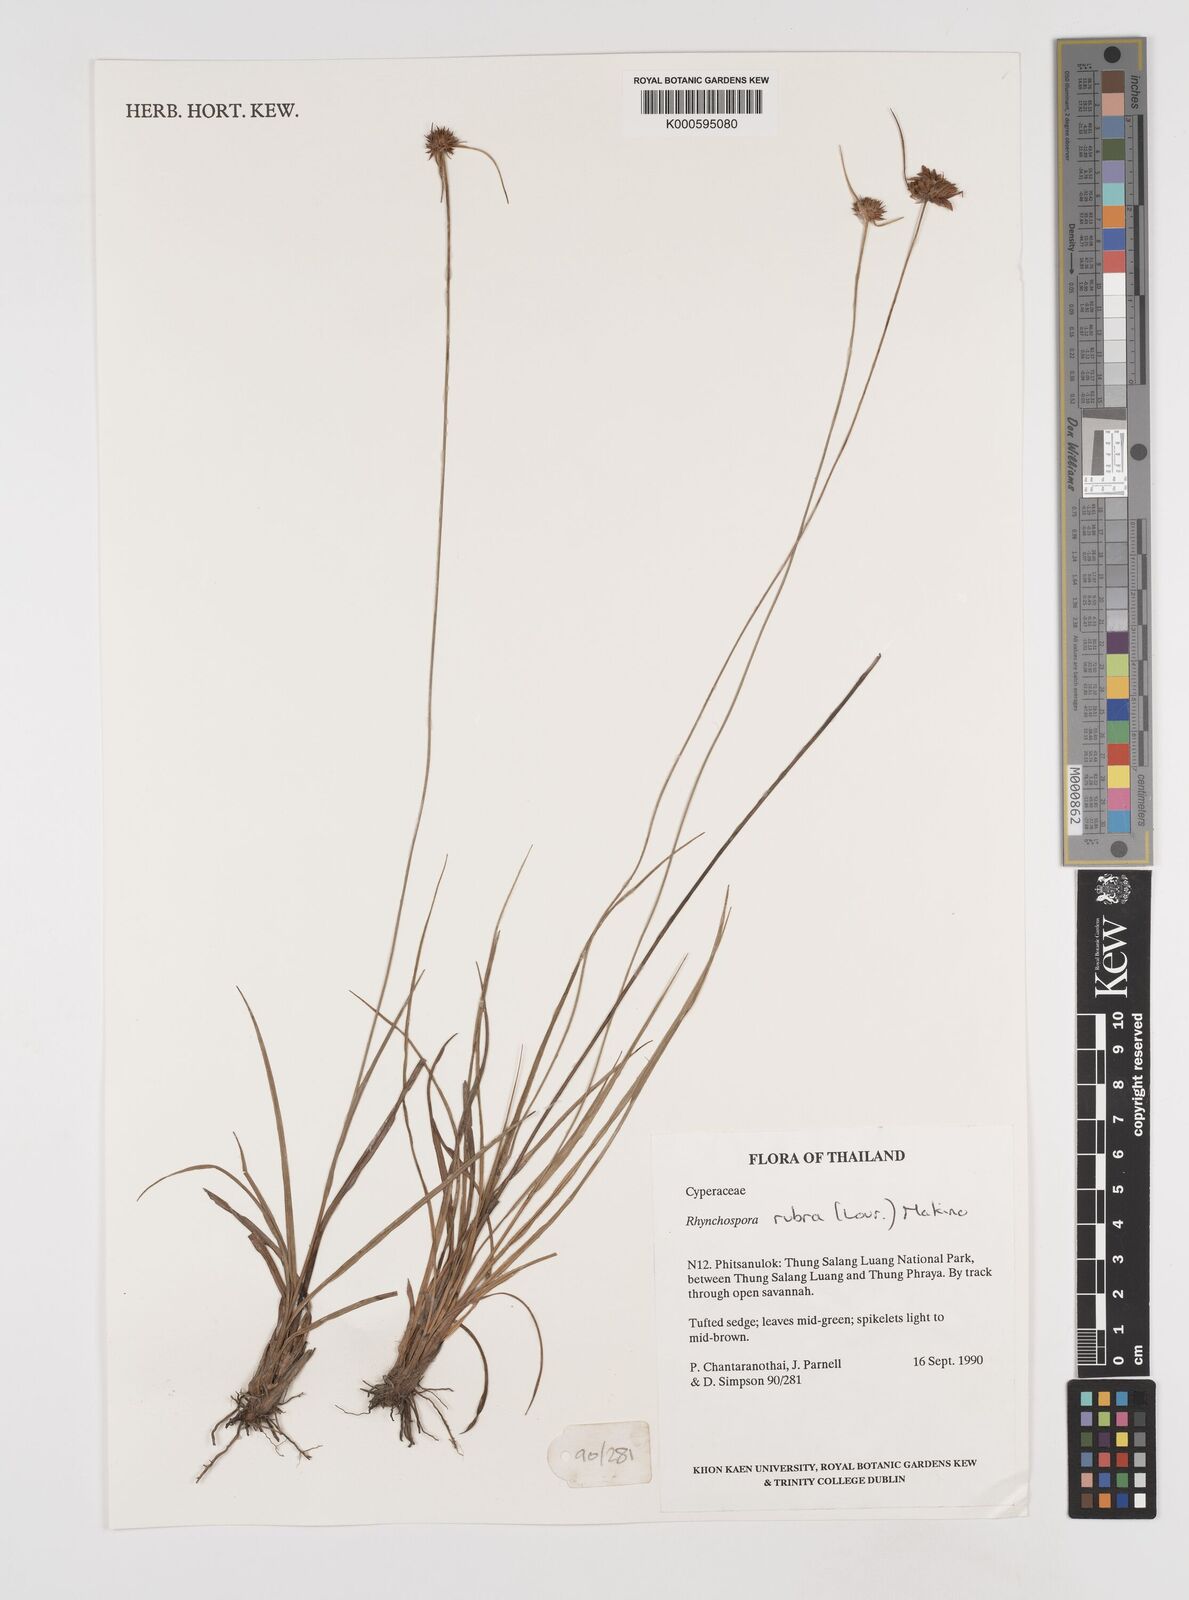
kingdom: Plantae
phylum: Tracheophyta
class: Liliopsida
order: Poales
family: Cyperaceae
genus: Rhynchospora
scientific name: Rhynchospora rubra
